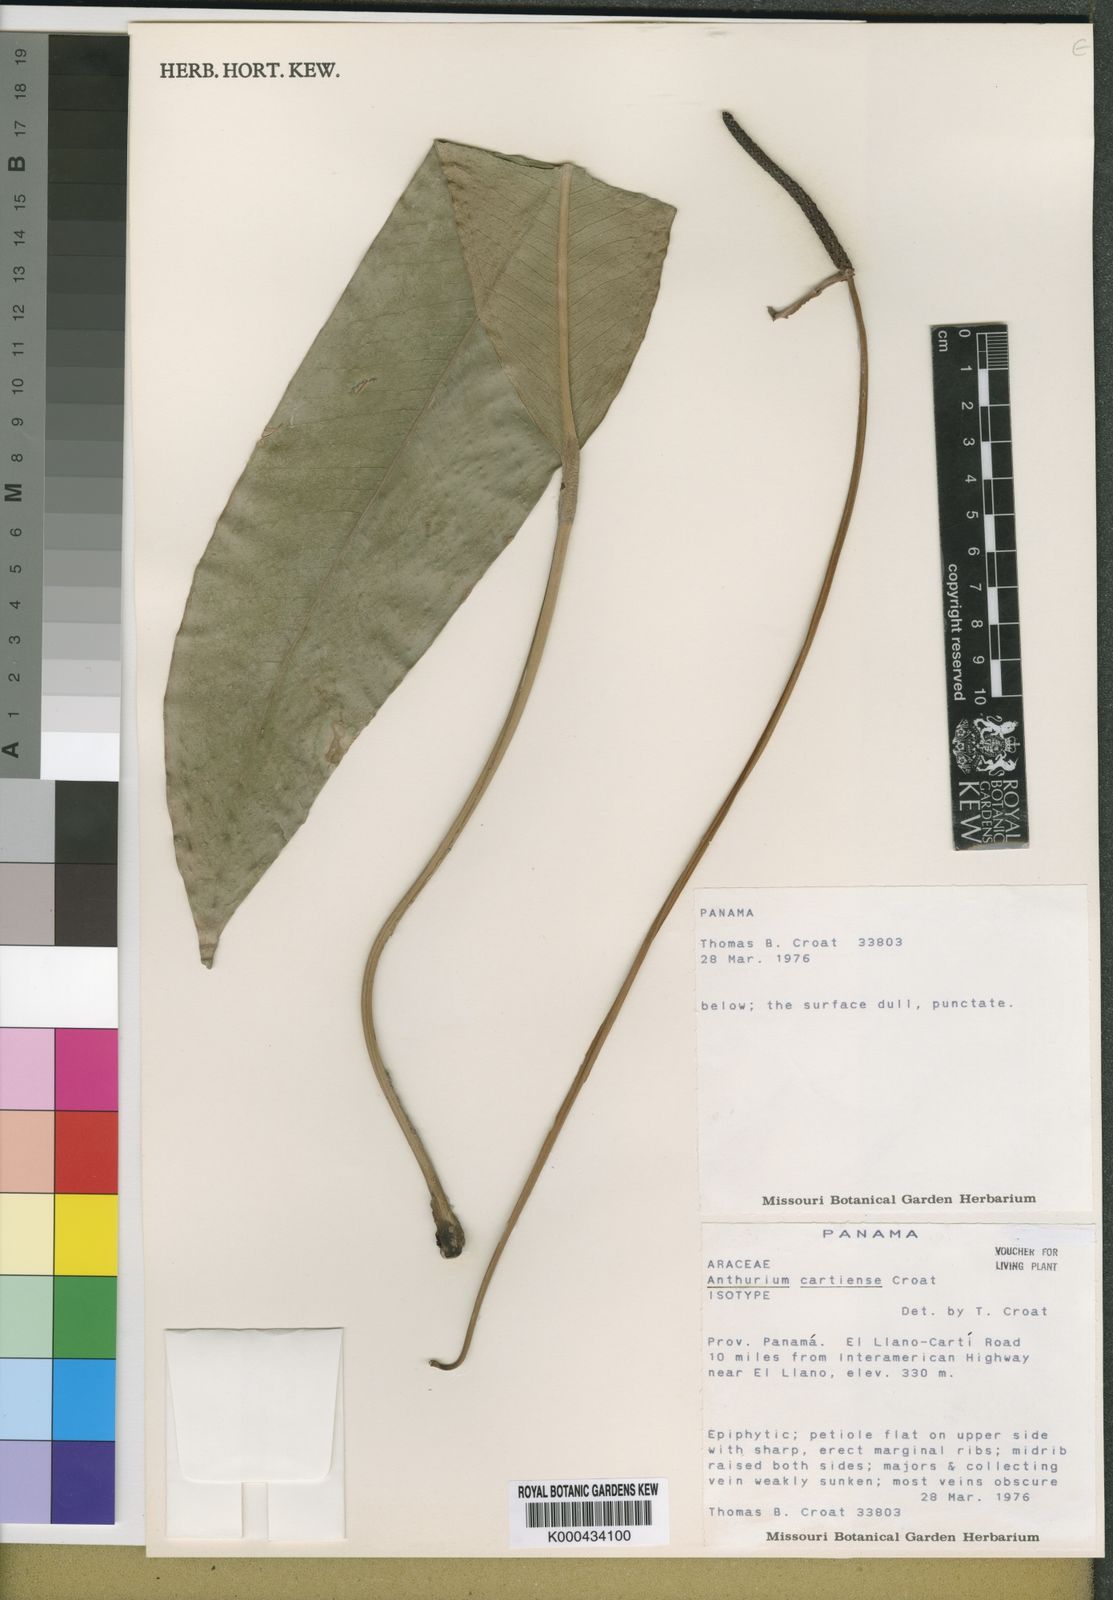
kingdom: Plantae
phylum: Tracheophyta
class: Liliopsida
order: Alismatales
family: Araceae
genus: Anthurium
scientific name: Anthurium cartiense
